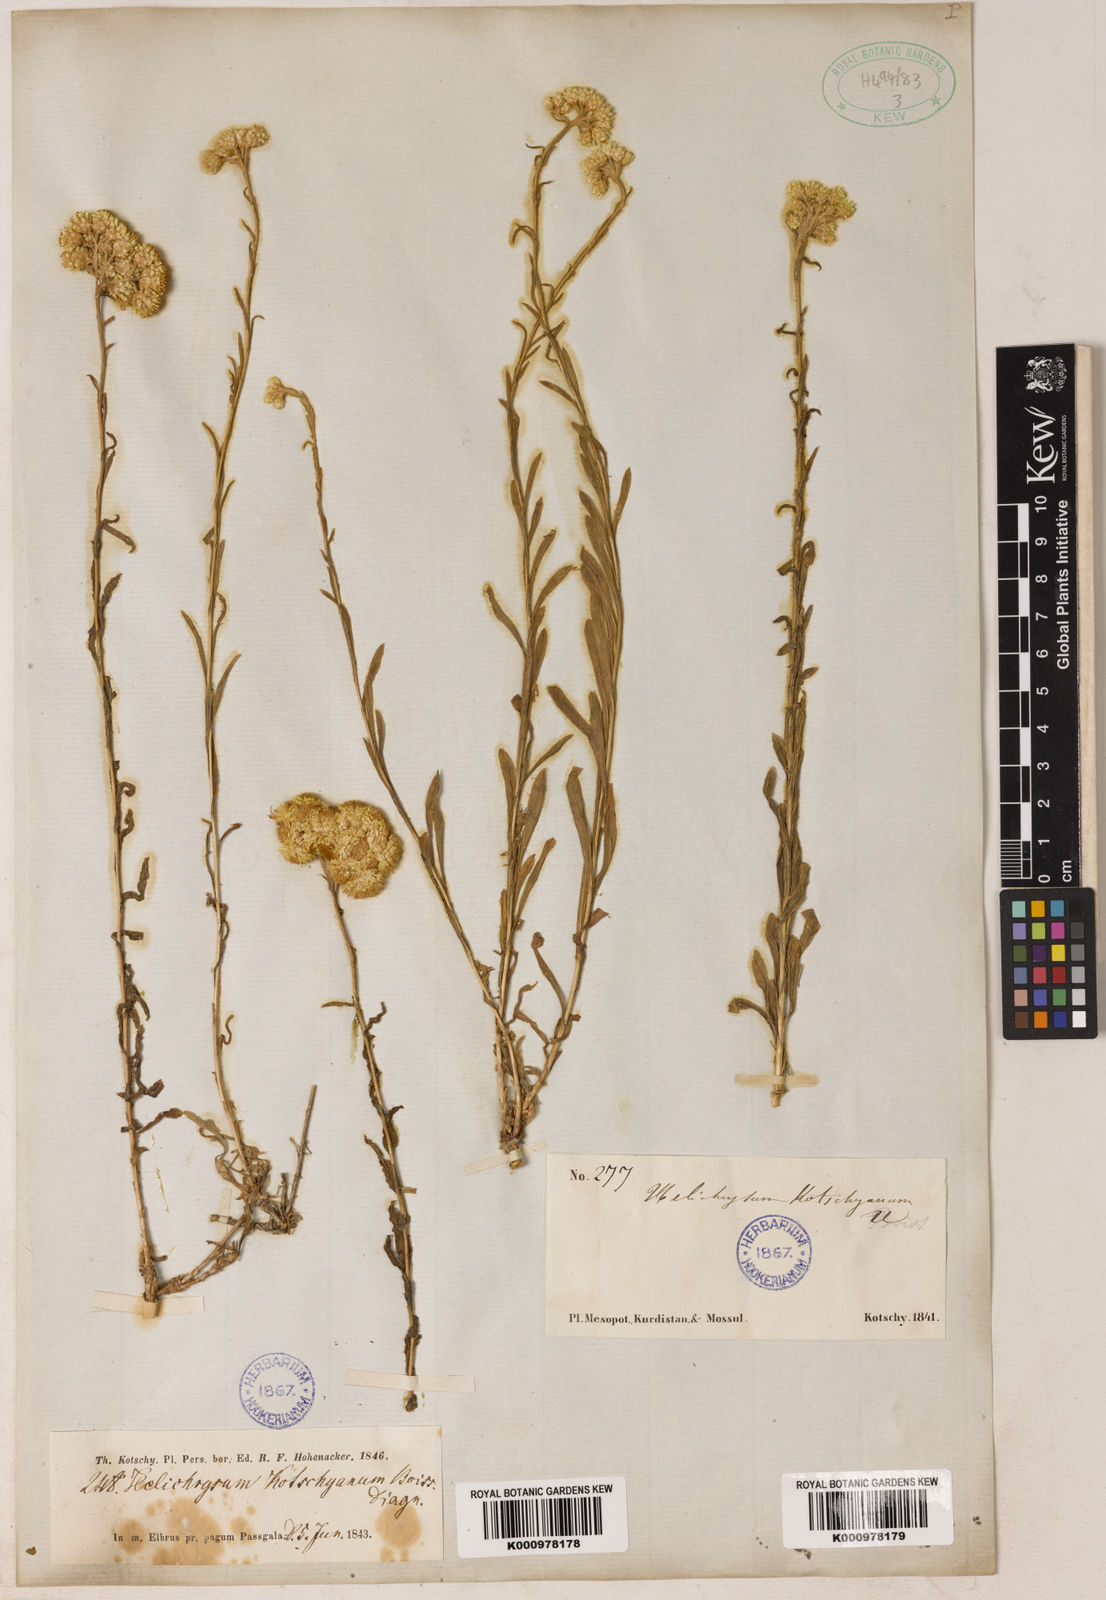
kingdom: Plantae
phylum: Tracheophyta
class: Magnoliopsida
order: Asterales
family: Asteraceae
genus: Helichrysum
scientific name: Helichrysum armenium
